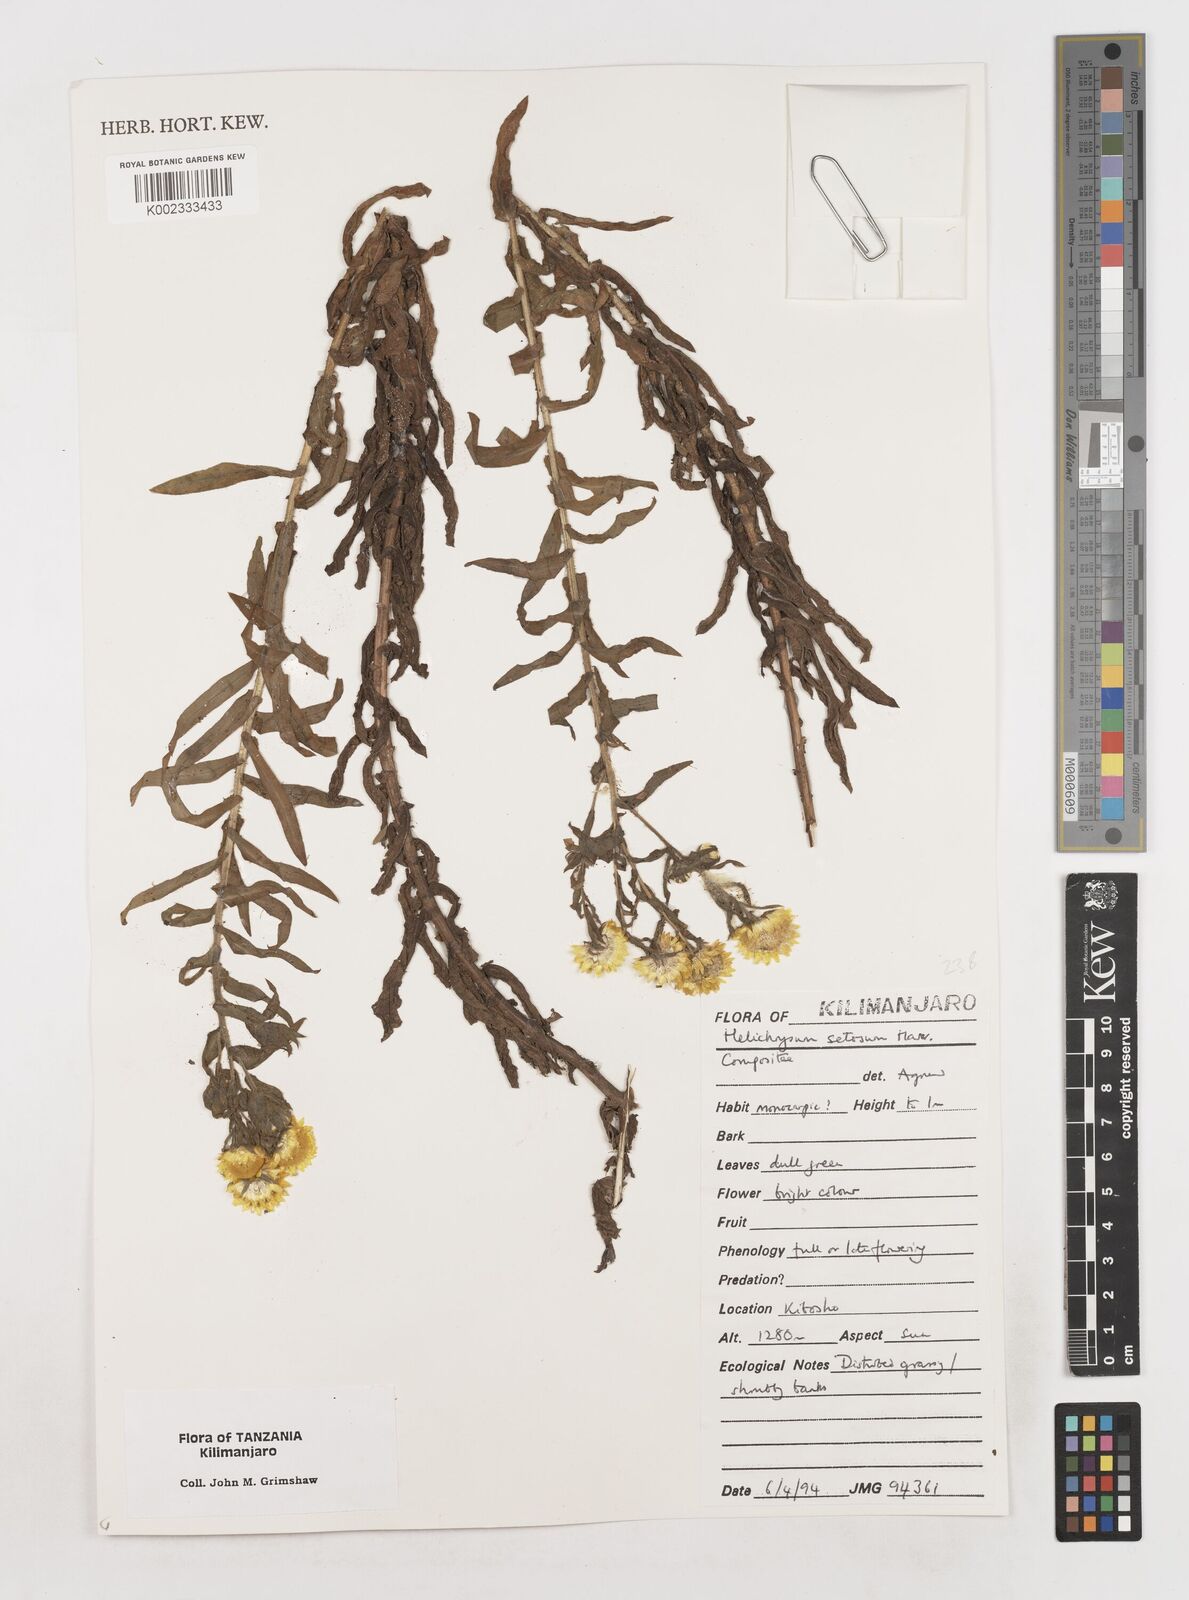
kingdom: Plantae
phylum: Tracheophyta
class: Magnoliopsida
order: Asterales
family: Asteraceae
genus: Helichrysum
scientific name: Helichrysum setosum
